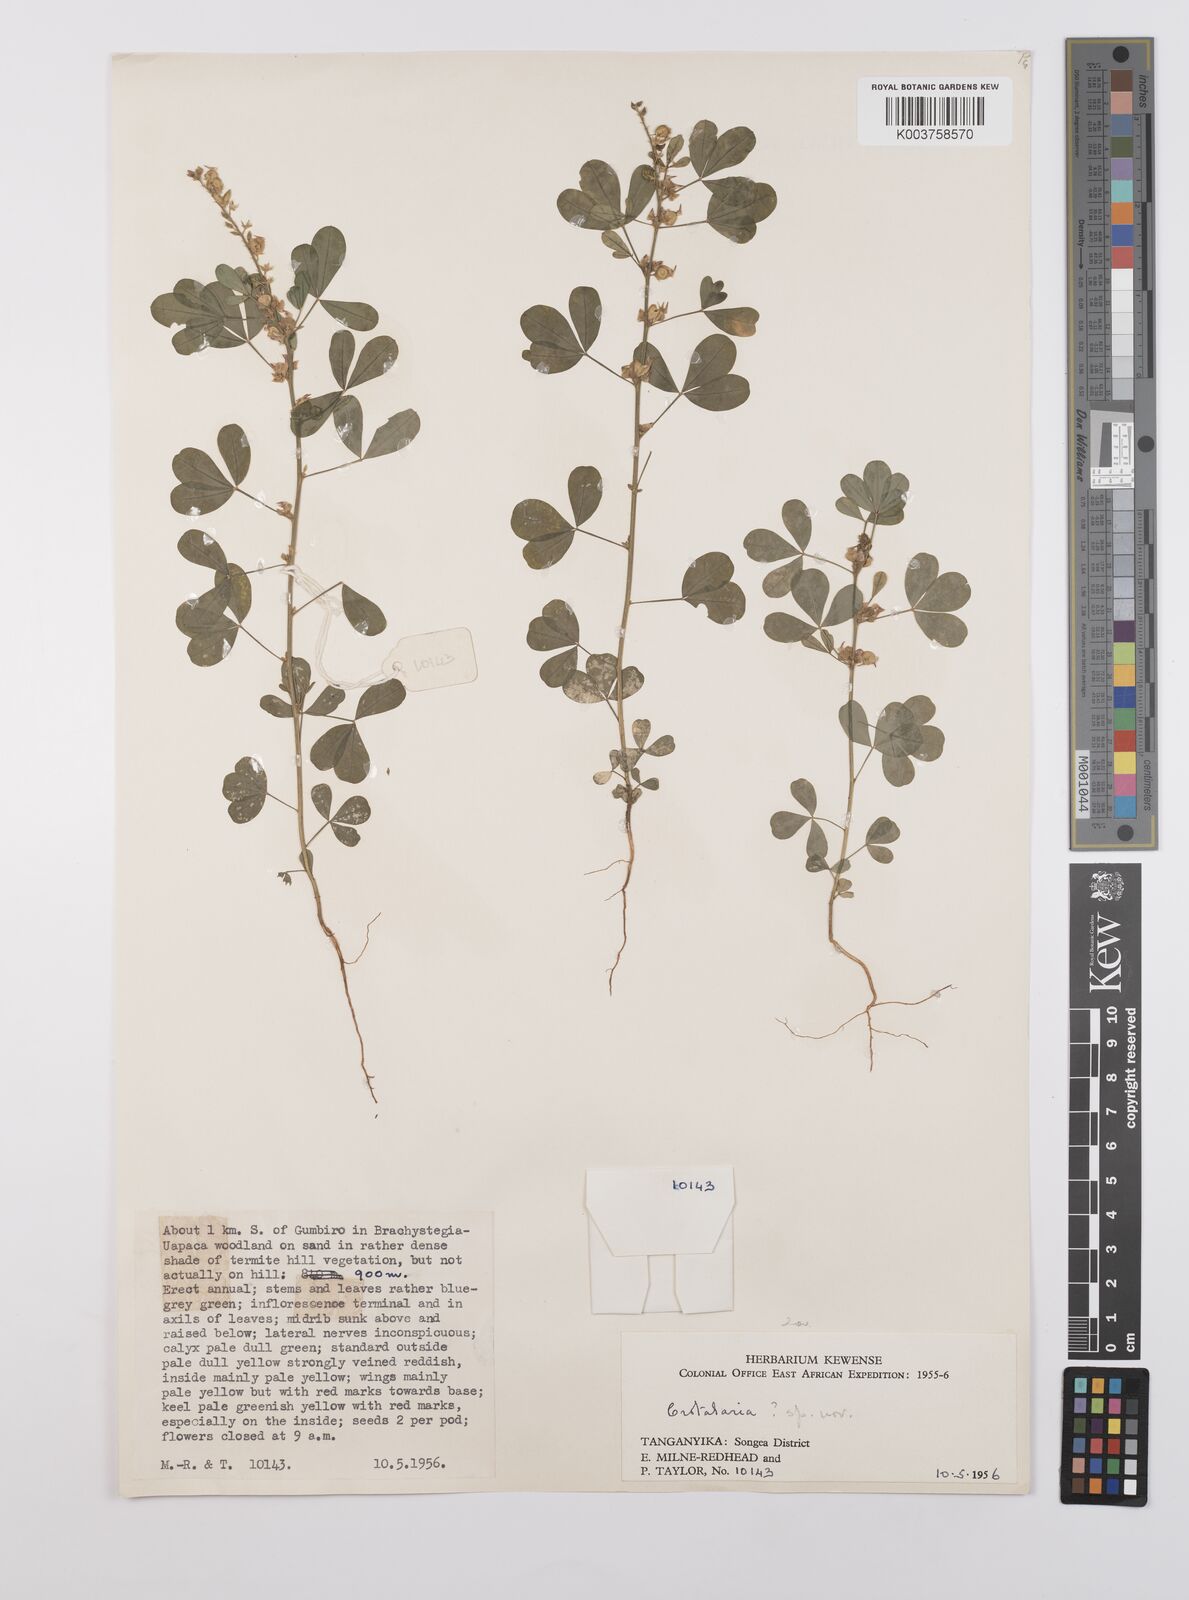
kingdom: Plantae
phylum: Tracheophyta
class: Magnoliopsida
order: Fabales
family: Fabaceae
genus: Crotalaria
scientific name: Crotalaria
